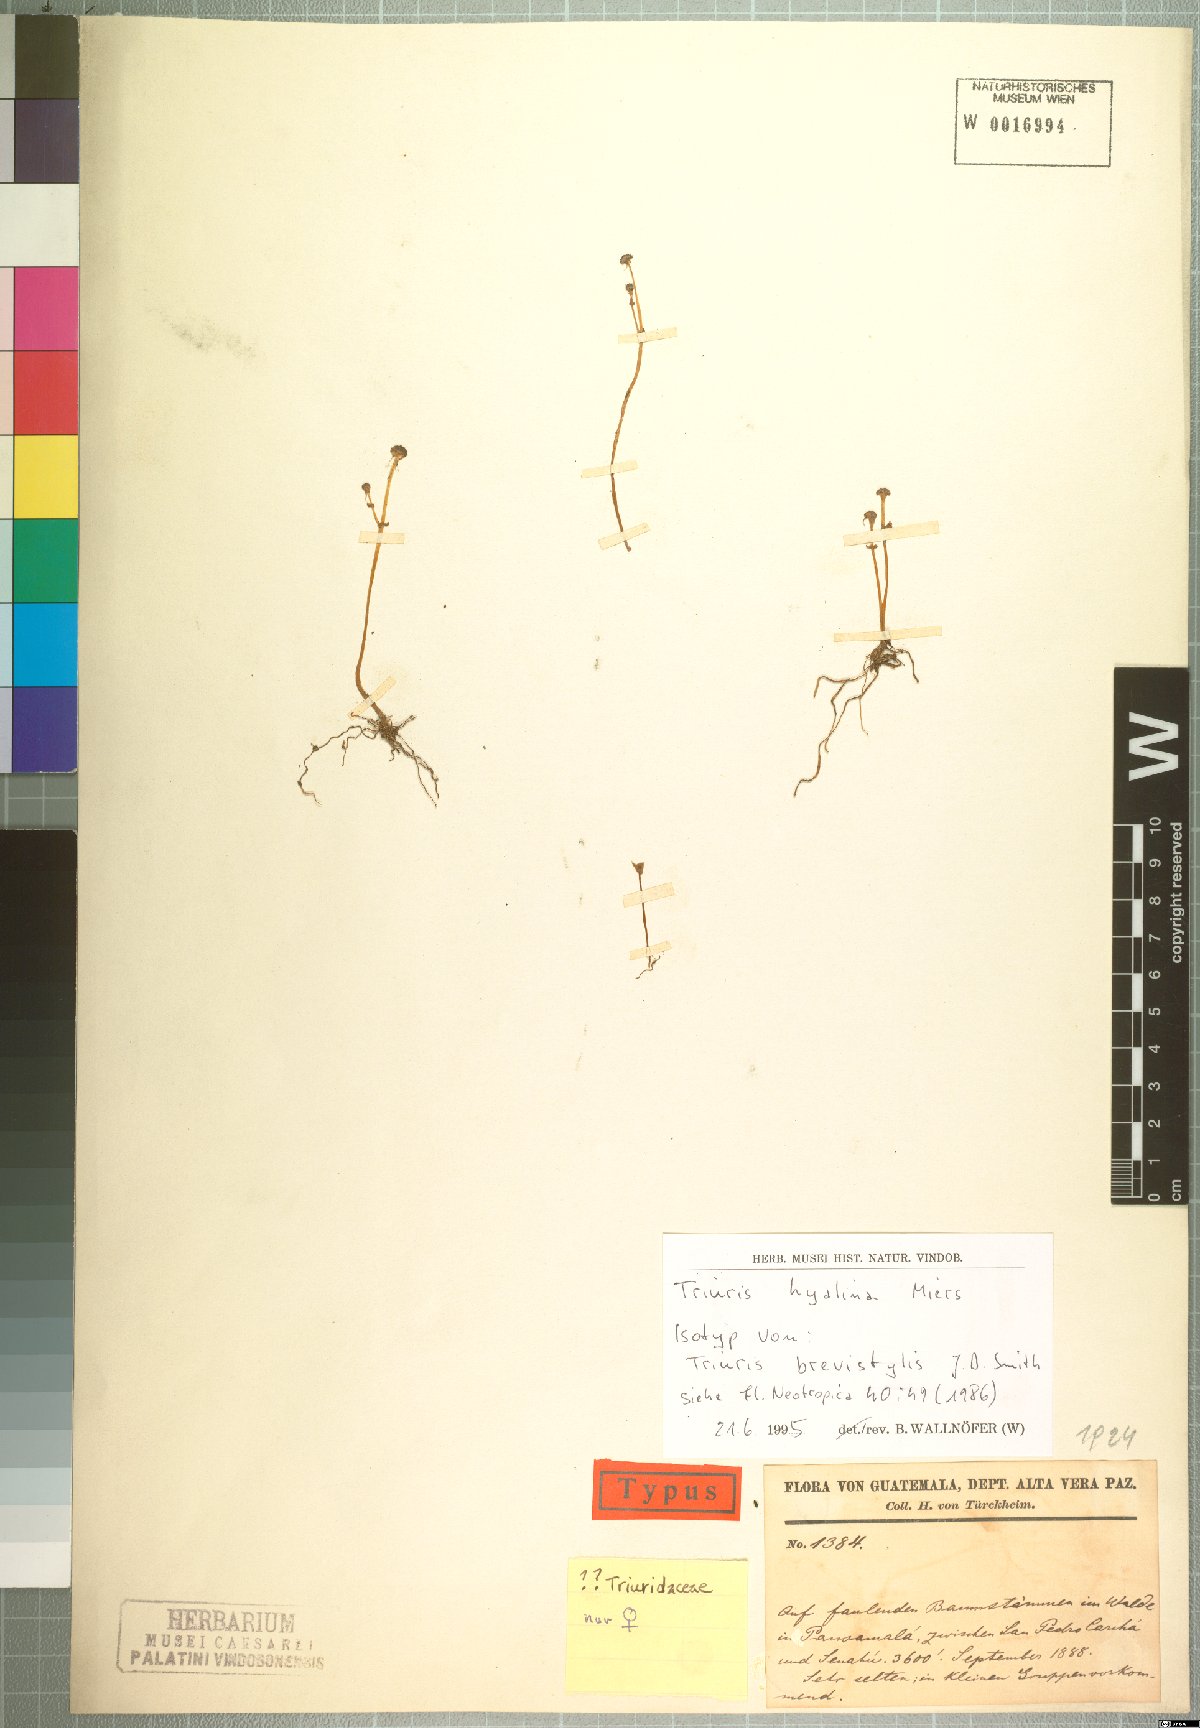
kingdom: Plantae
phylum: Tracheophyta
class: Liliopsida
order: Pandanales
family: Triuridaceae
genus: Triuris
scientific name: Triuris hyalina
